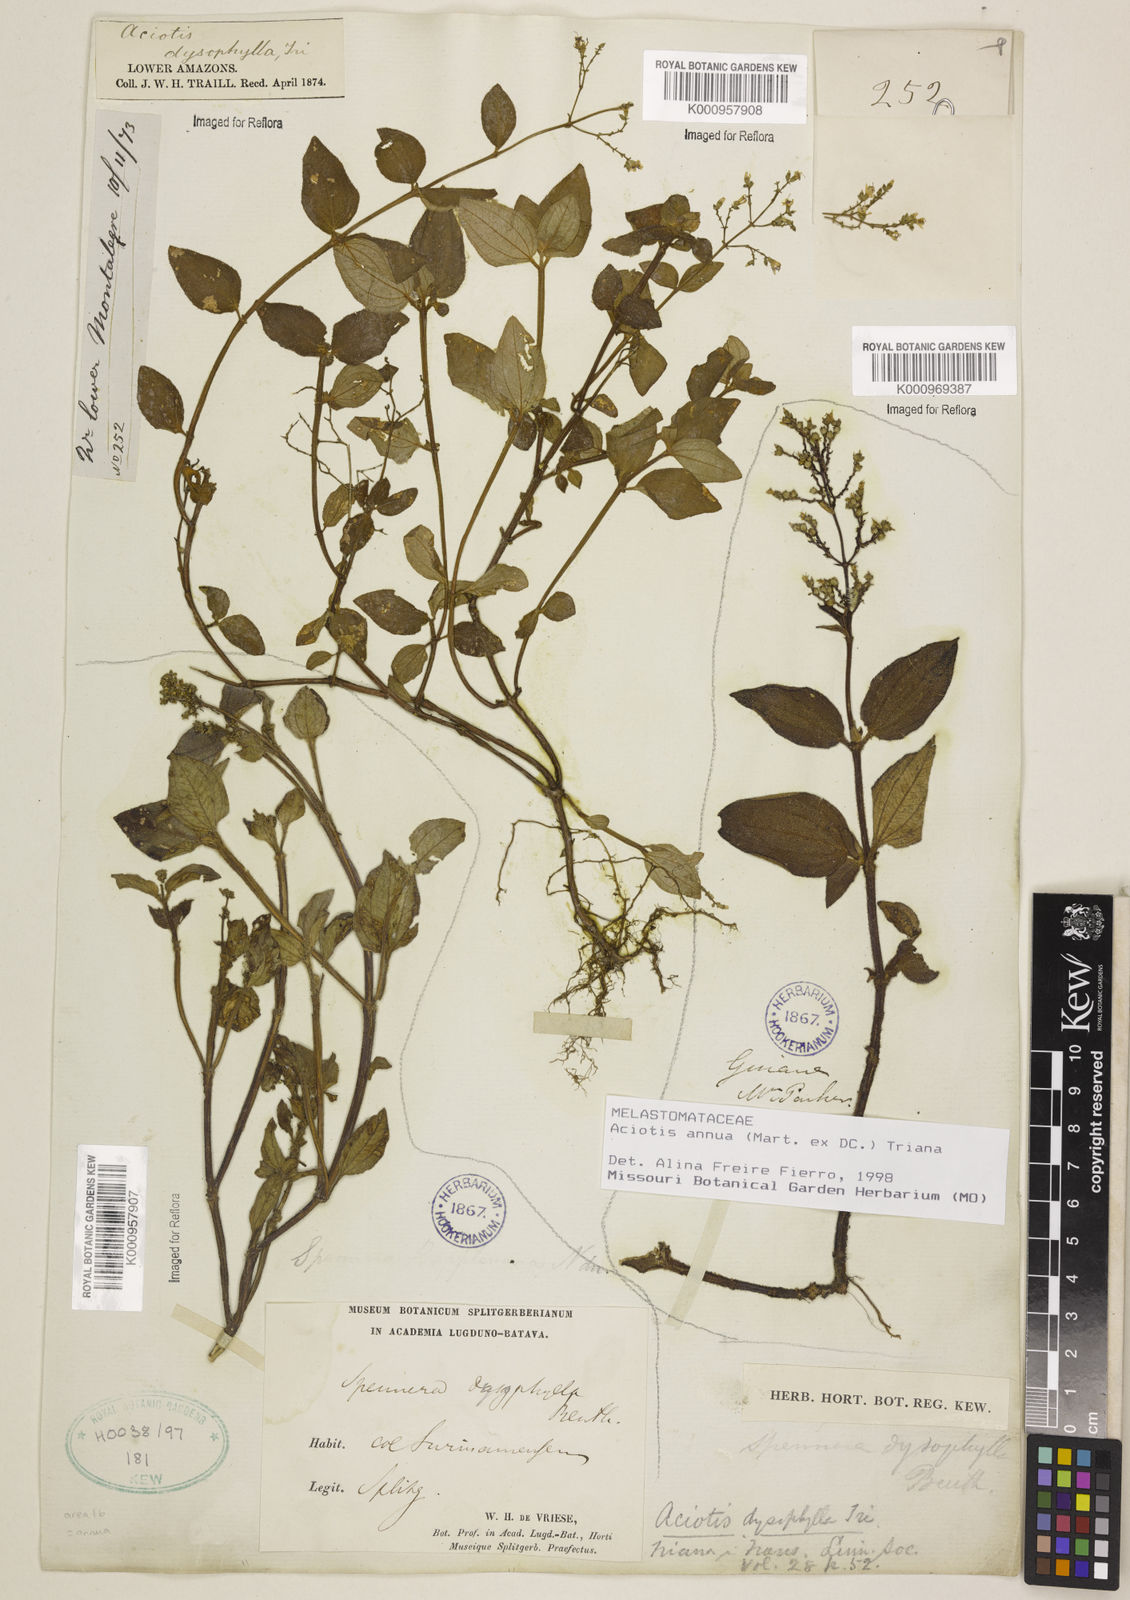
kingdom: Plantae
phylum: Tracheophyta
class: Magnoliopsida
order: Myrtales
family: Melastomataceae
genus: Aciotis
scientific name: Aciotis annua
